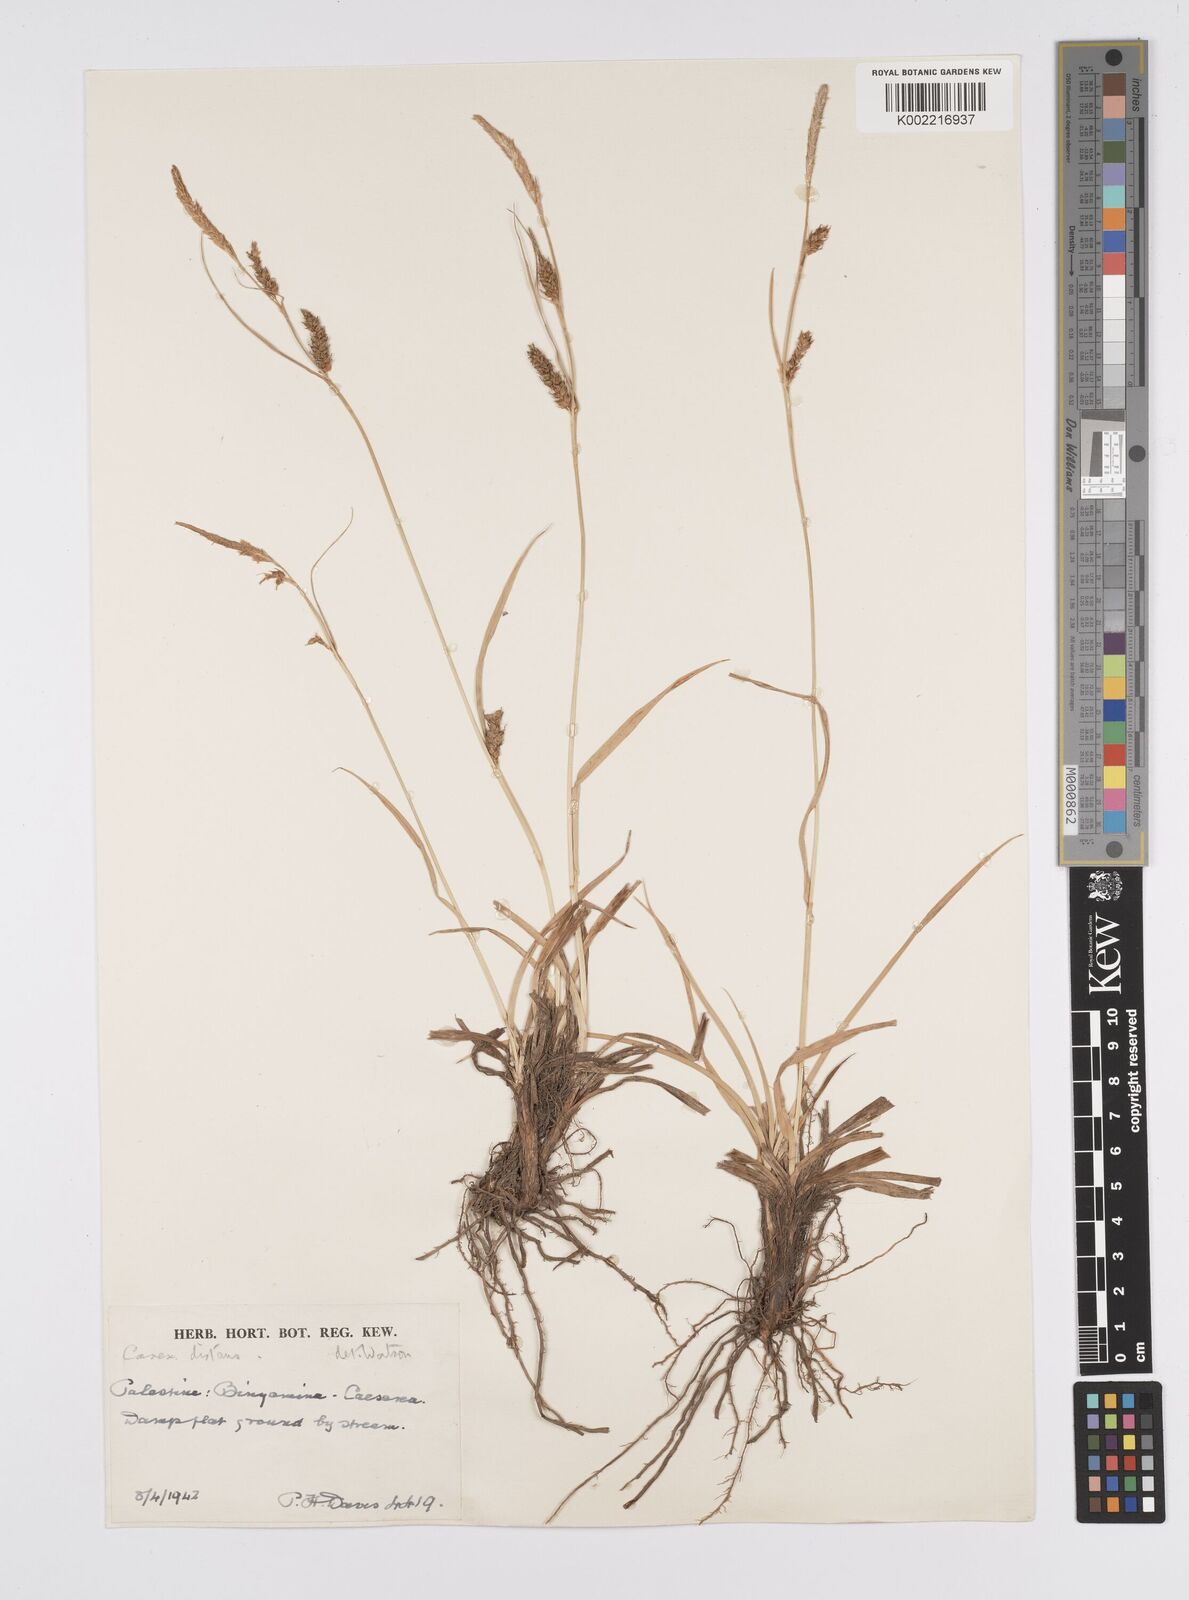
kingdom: Plantae
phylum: Tracheophyta
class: Liliopsida
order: Poales
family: Cyperaceae
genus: Carex
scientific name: Carex distans
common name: Distant sedge
